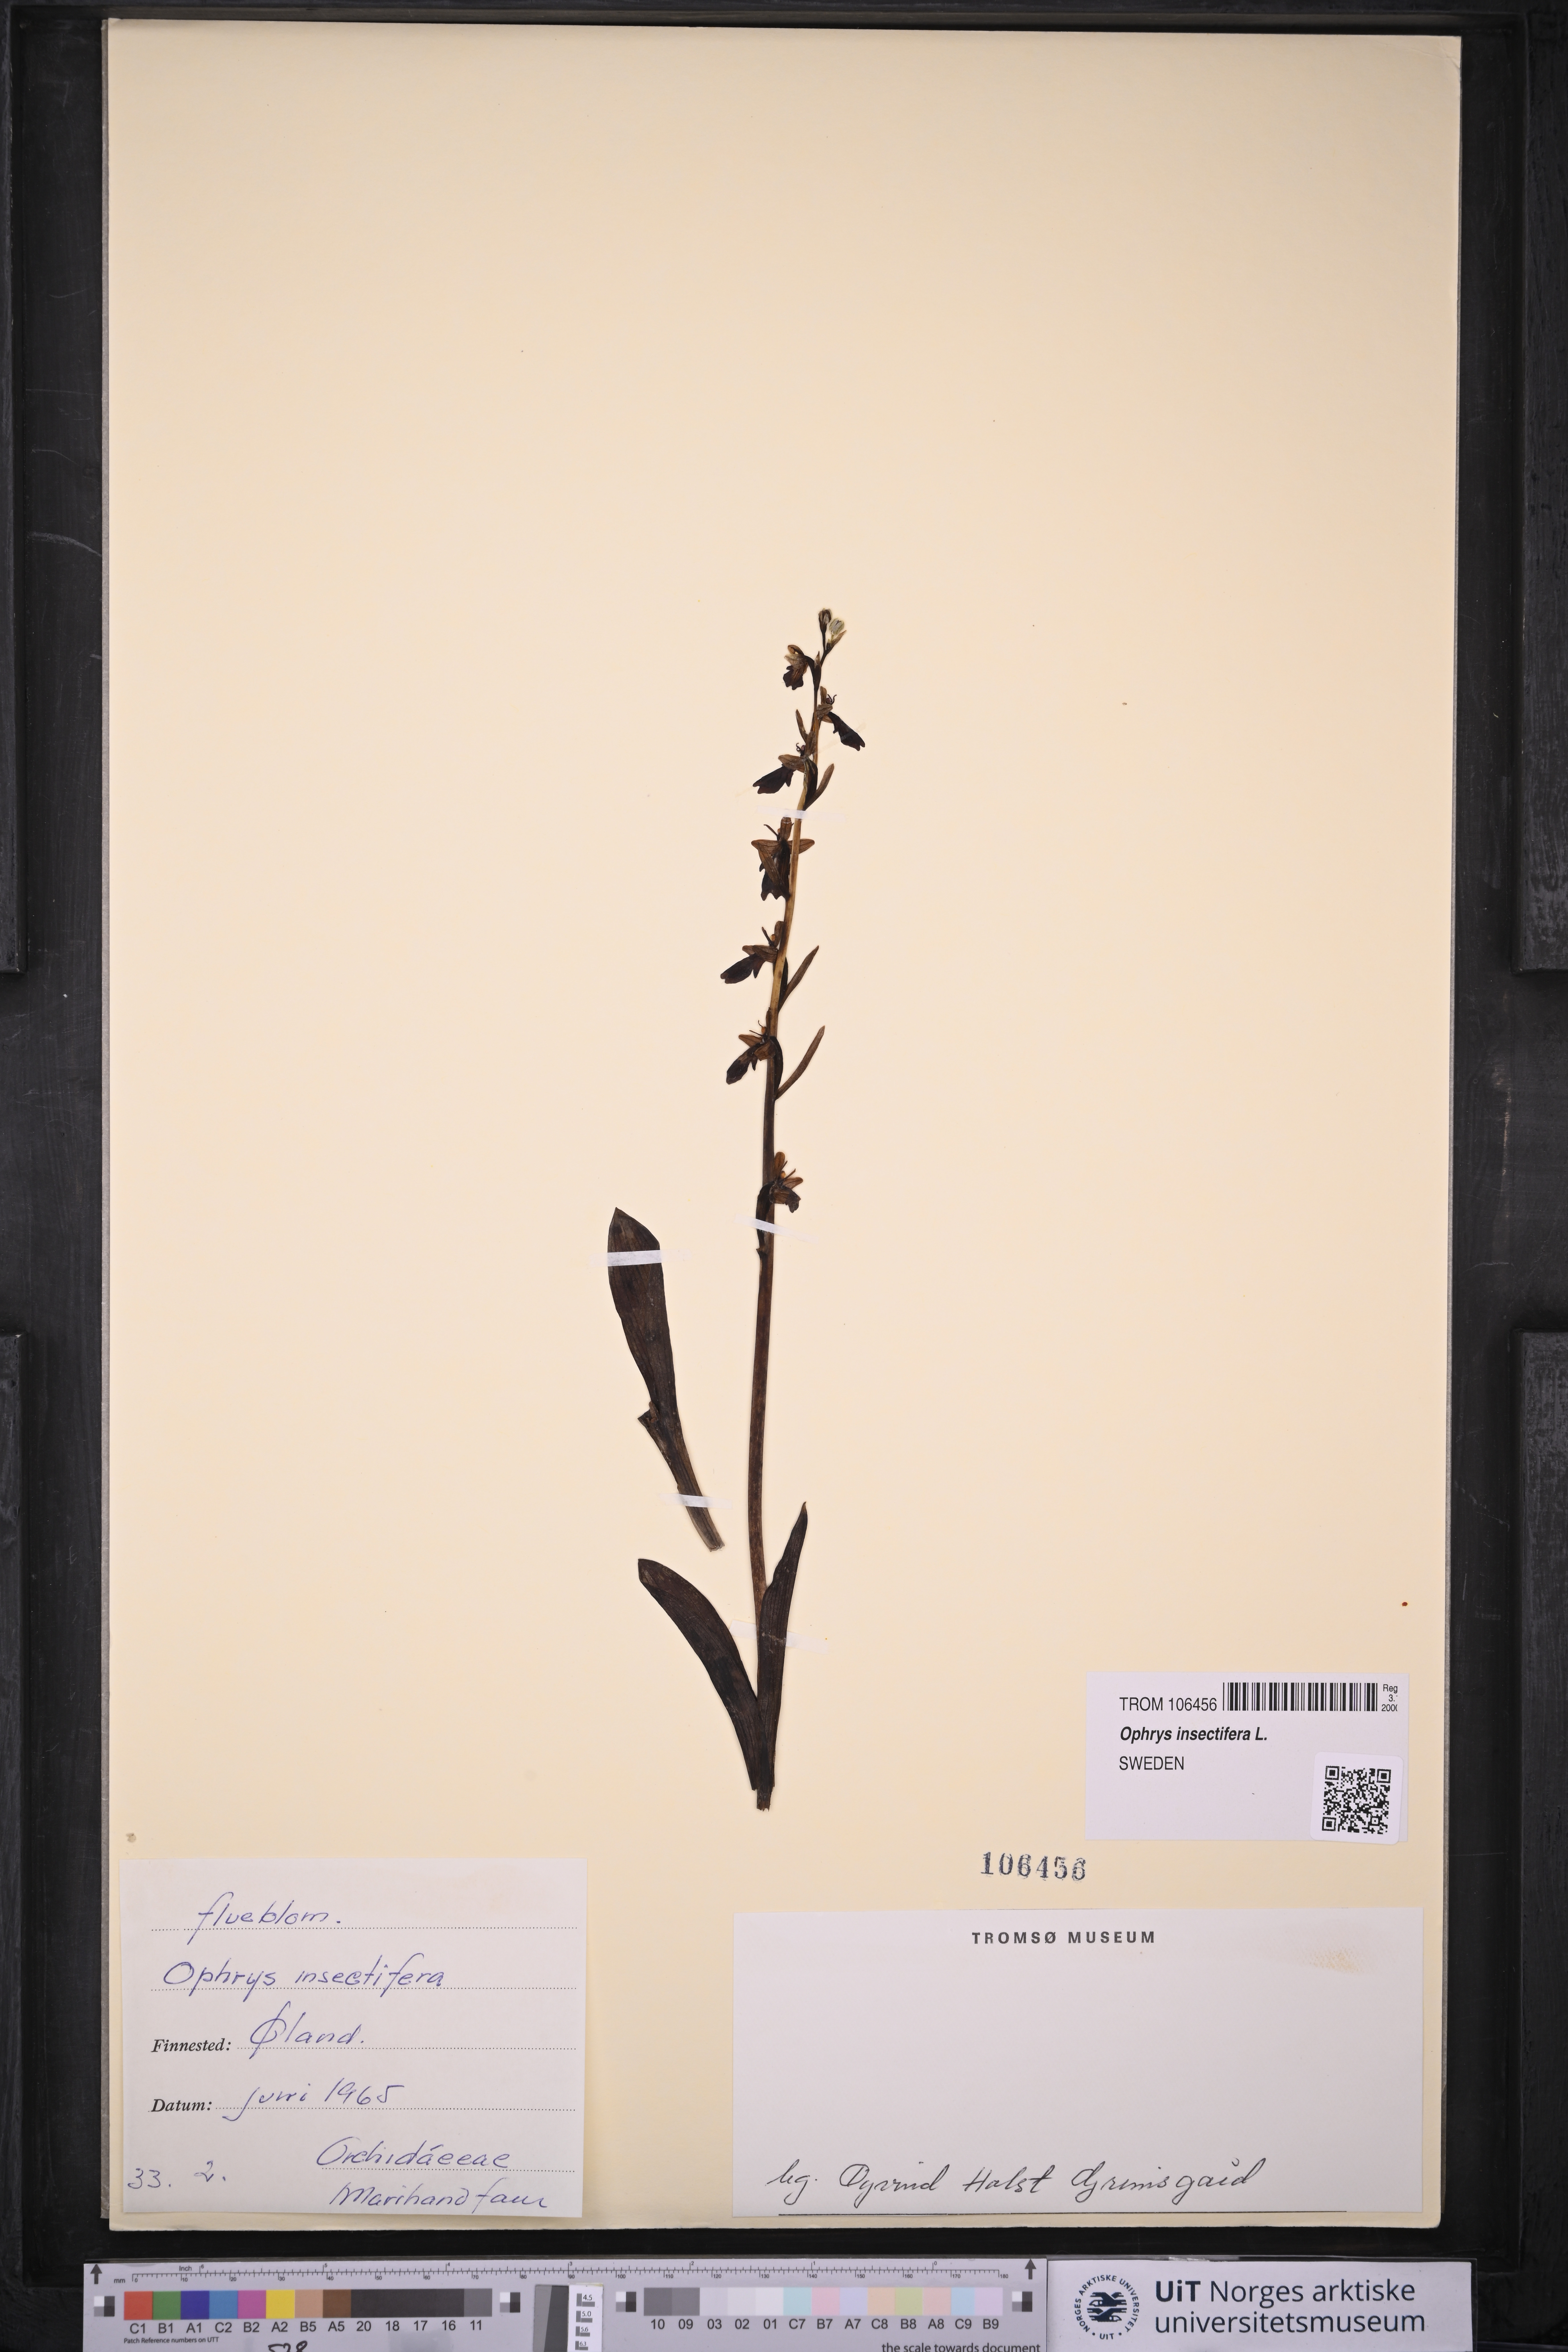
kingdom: Plantae
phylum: Tracheophyta
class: Liliopsida
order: Asparagales
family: Orchidaceae
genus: Ophrys
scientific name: Ophrys insectifera
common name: Fly orchid
